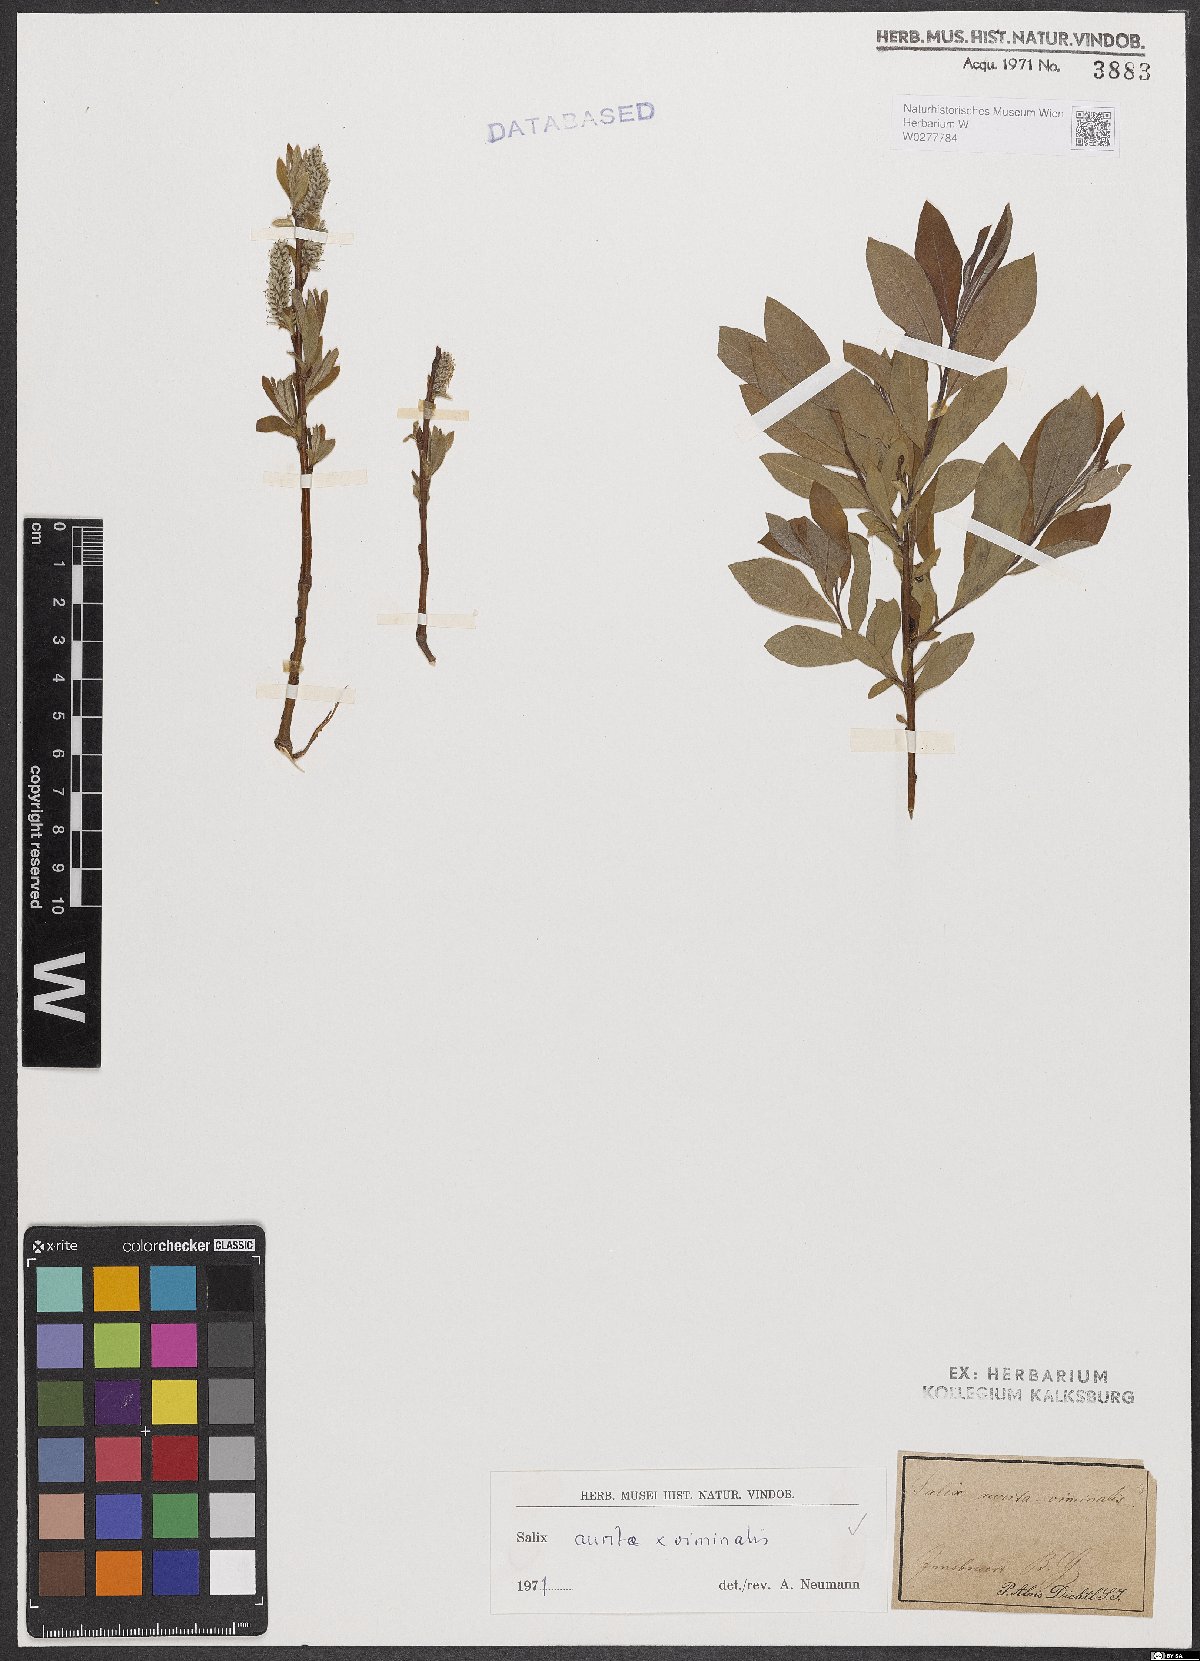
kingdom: Plantae
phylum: Tracheophyta
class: Magnoliopsida
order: Malpighiales
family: Salicaceae
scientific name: Salicaceae
